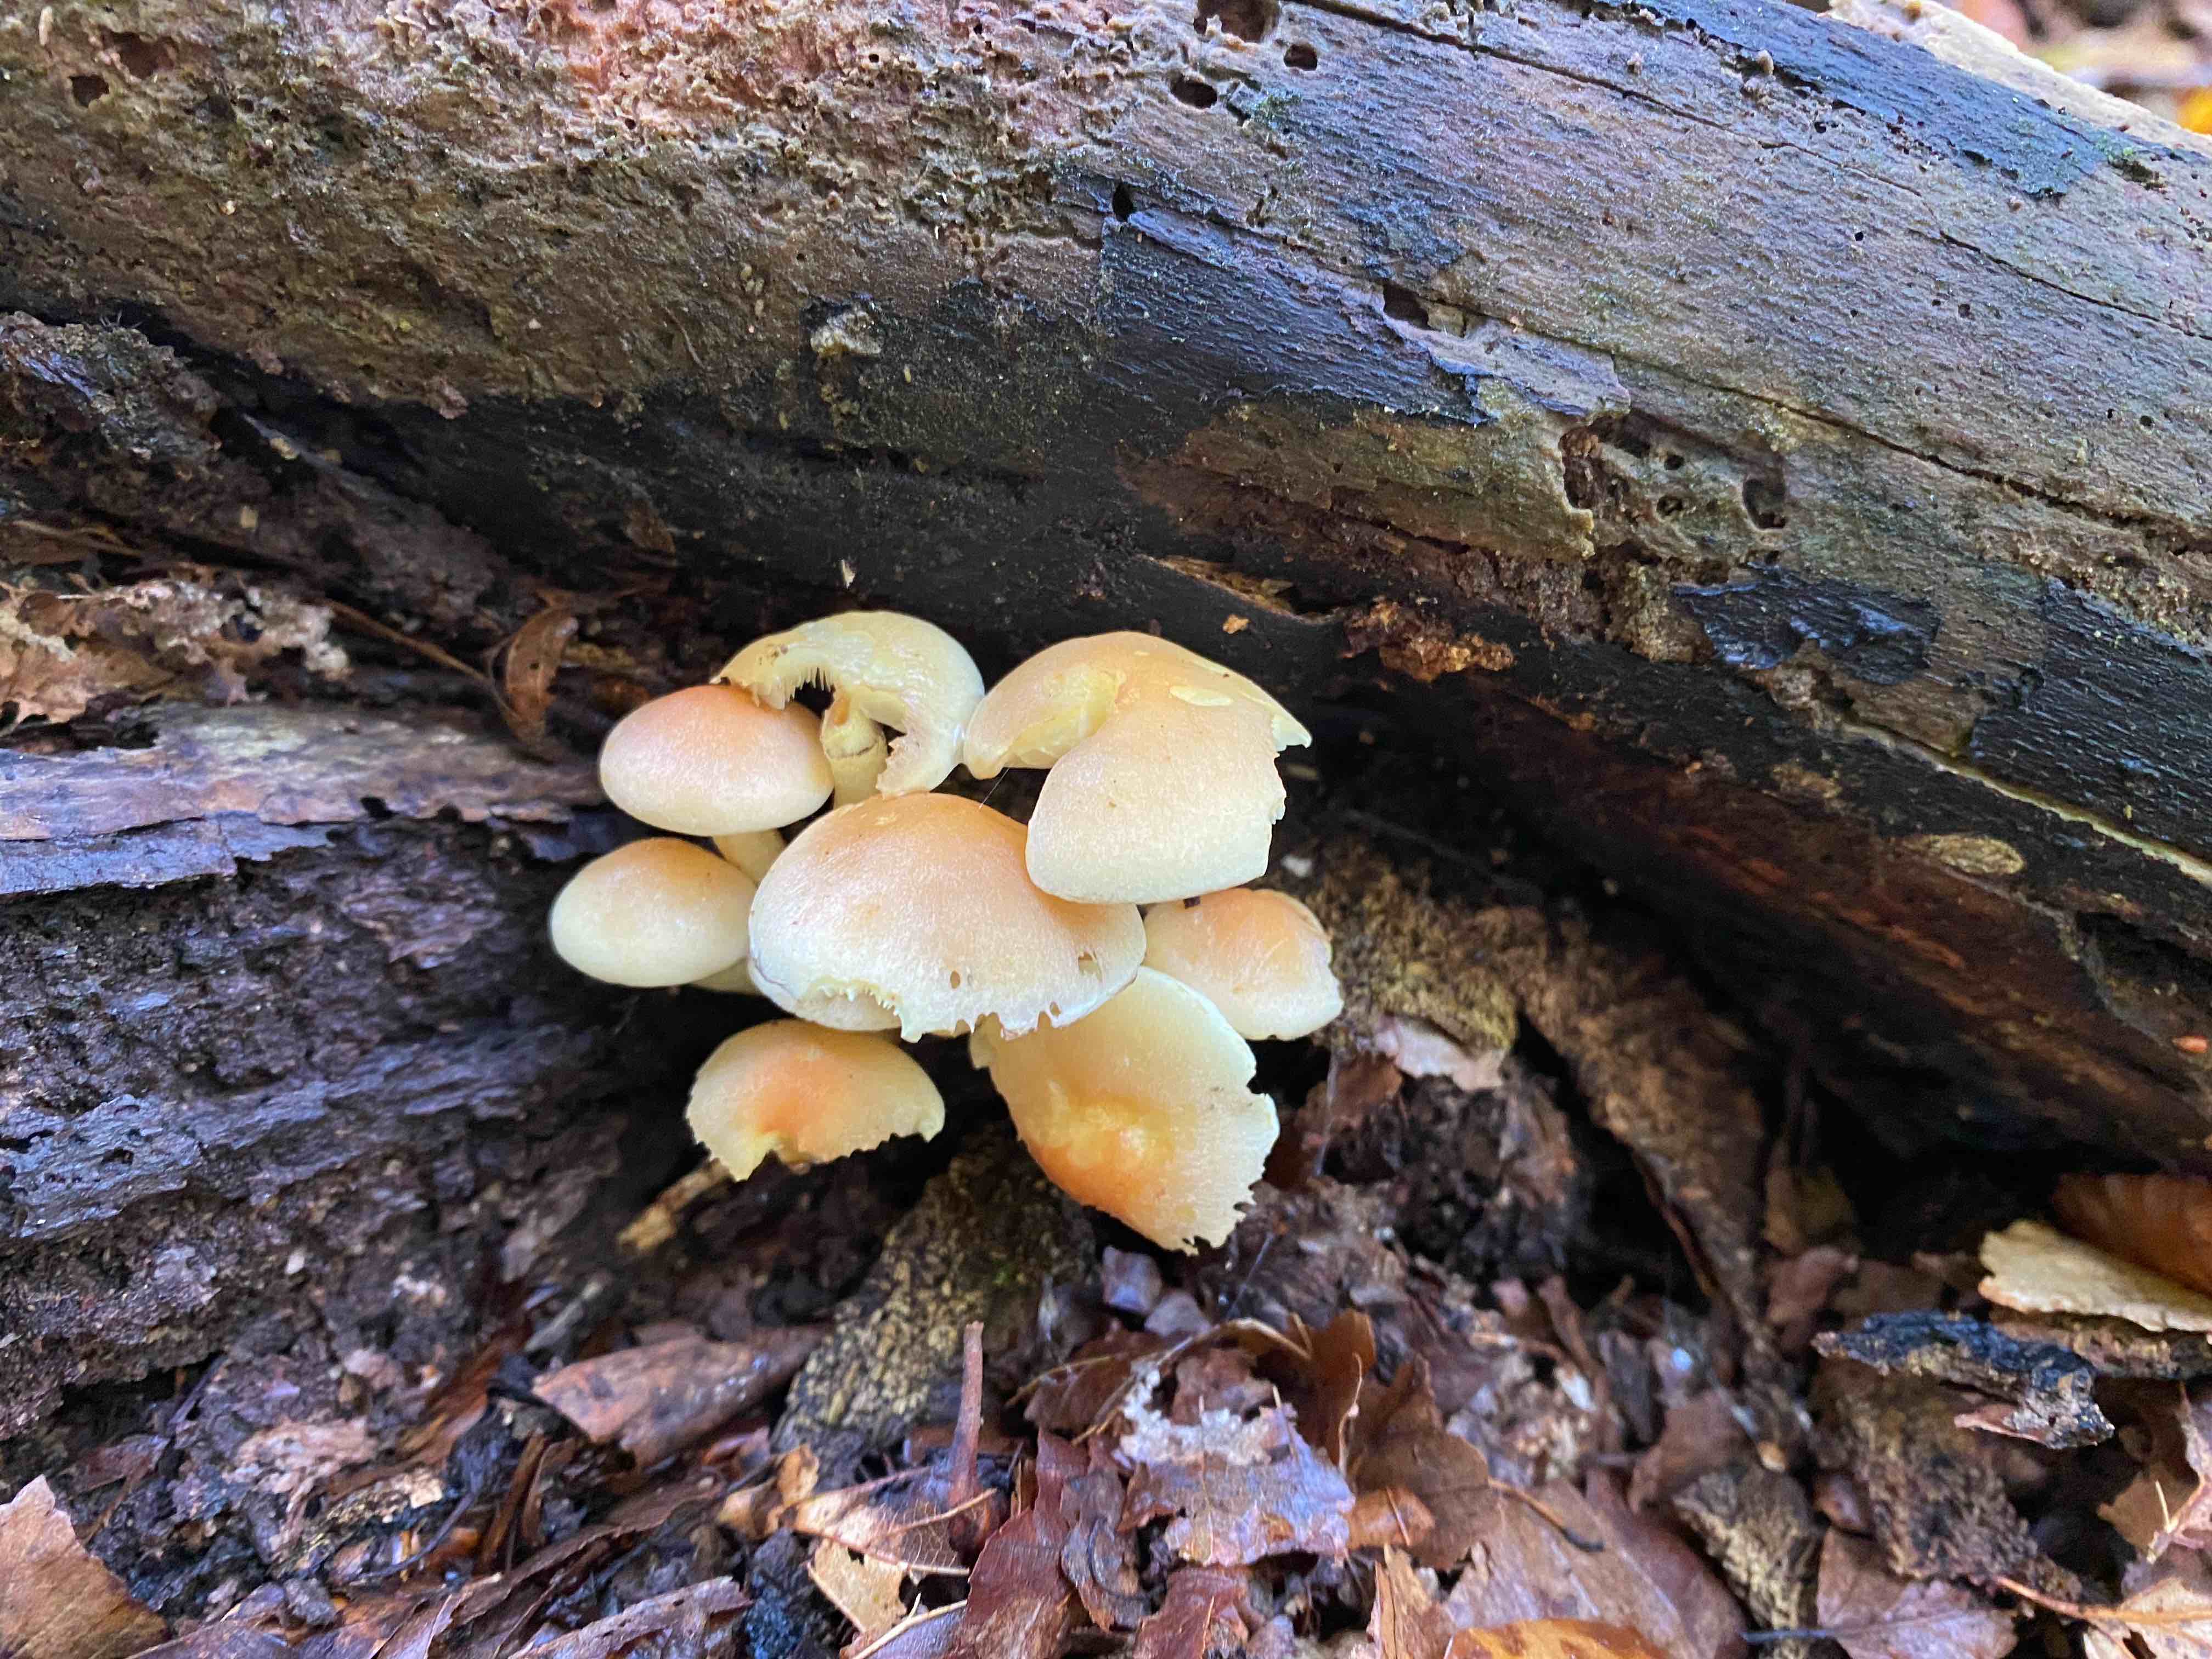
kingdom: Fungi
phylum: Basidiomycota
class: Agaricomycetes
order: Agaricales
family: Strophariaceae
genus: Hypholoma
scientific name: Hypholoma fasciculare
